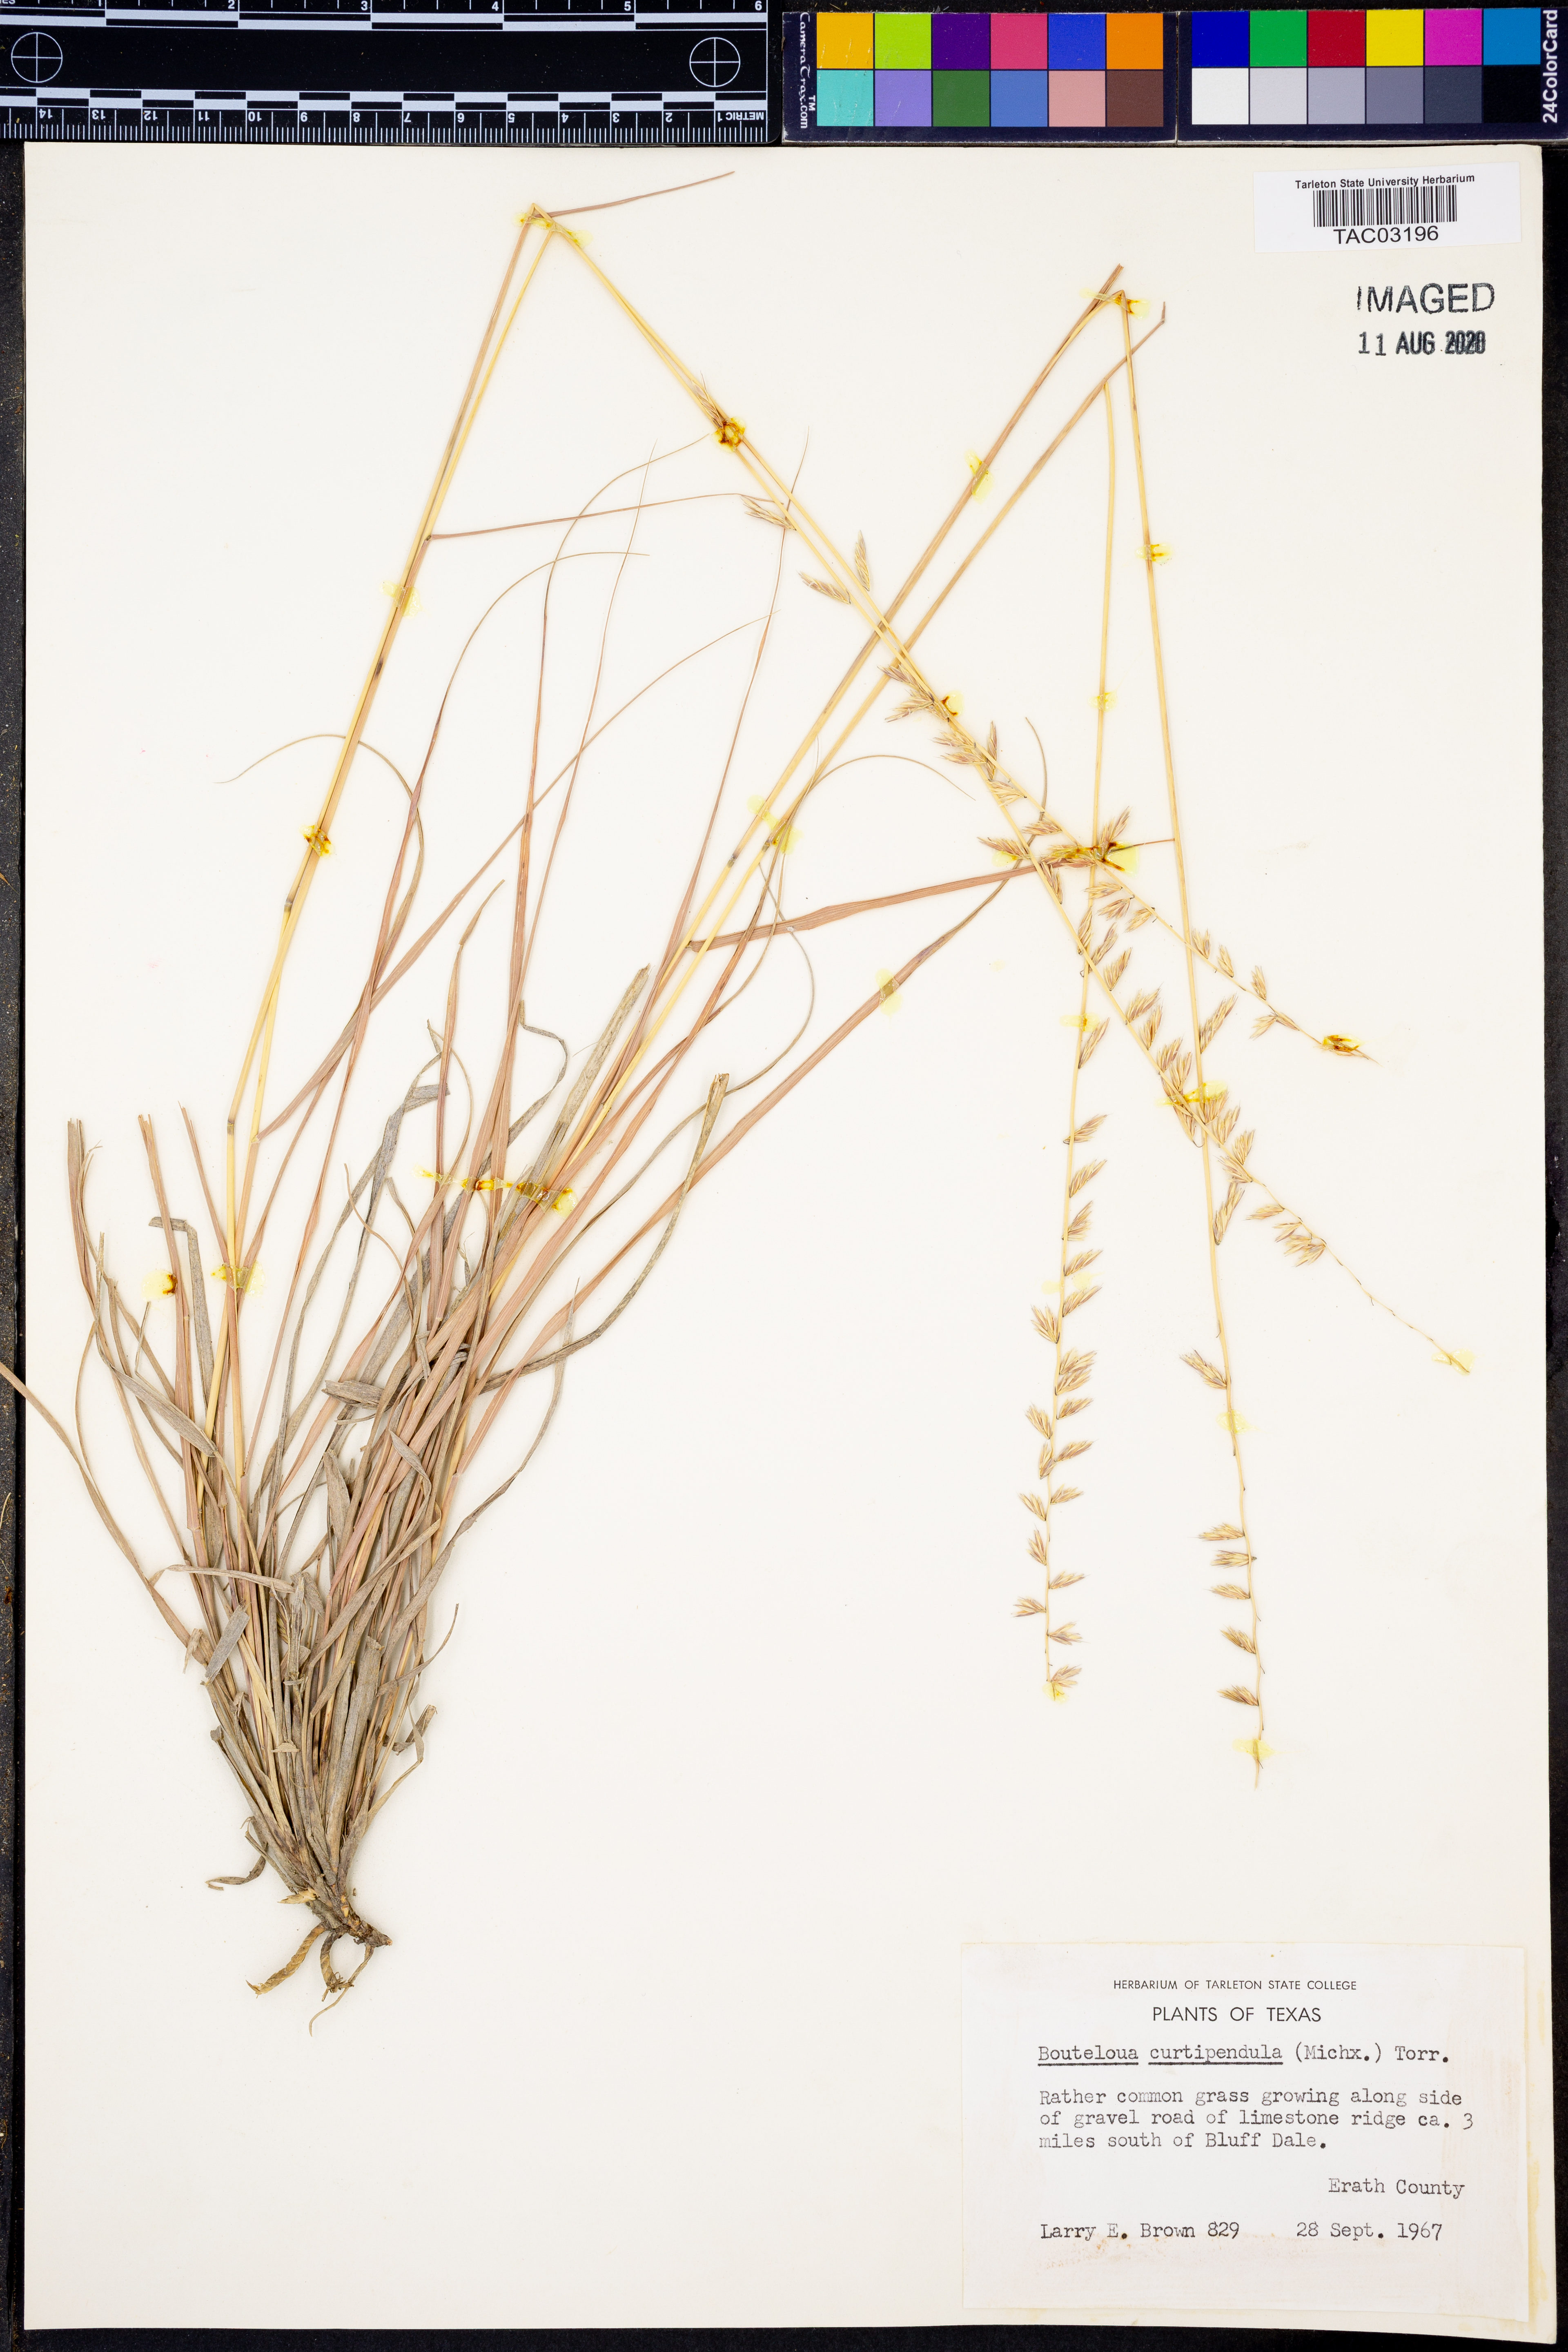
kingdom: Plantae
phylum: Tracheophyta
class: Liliopsida
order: Poales
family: Poaceae
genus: Bouteloua
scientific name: Bouteloua curtipendula
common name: Side-oats grama
